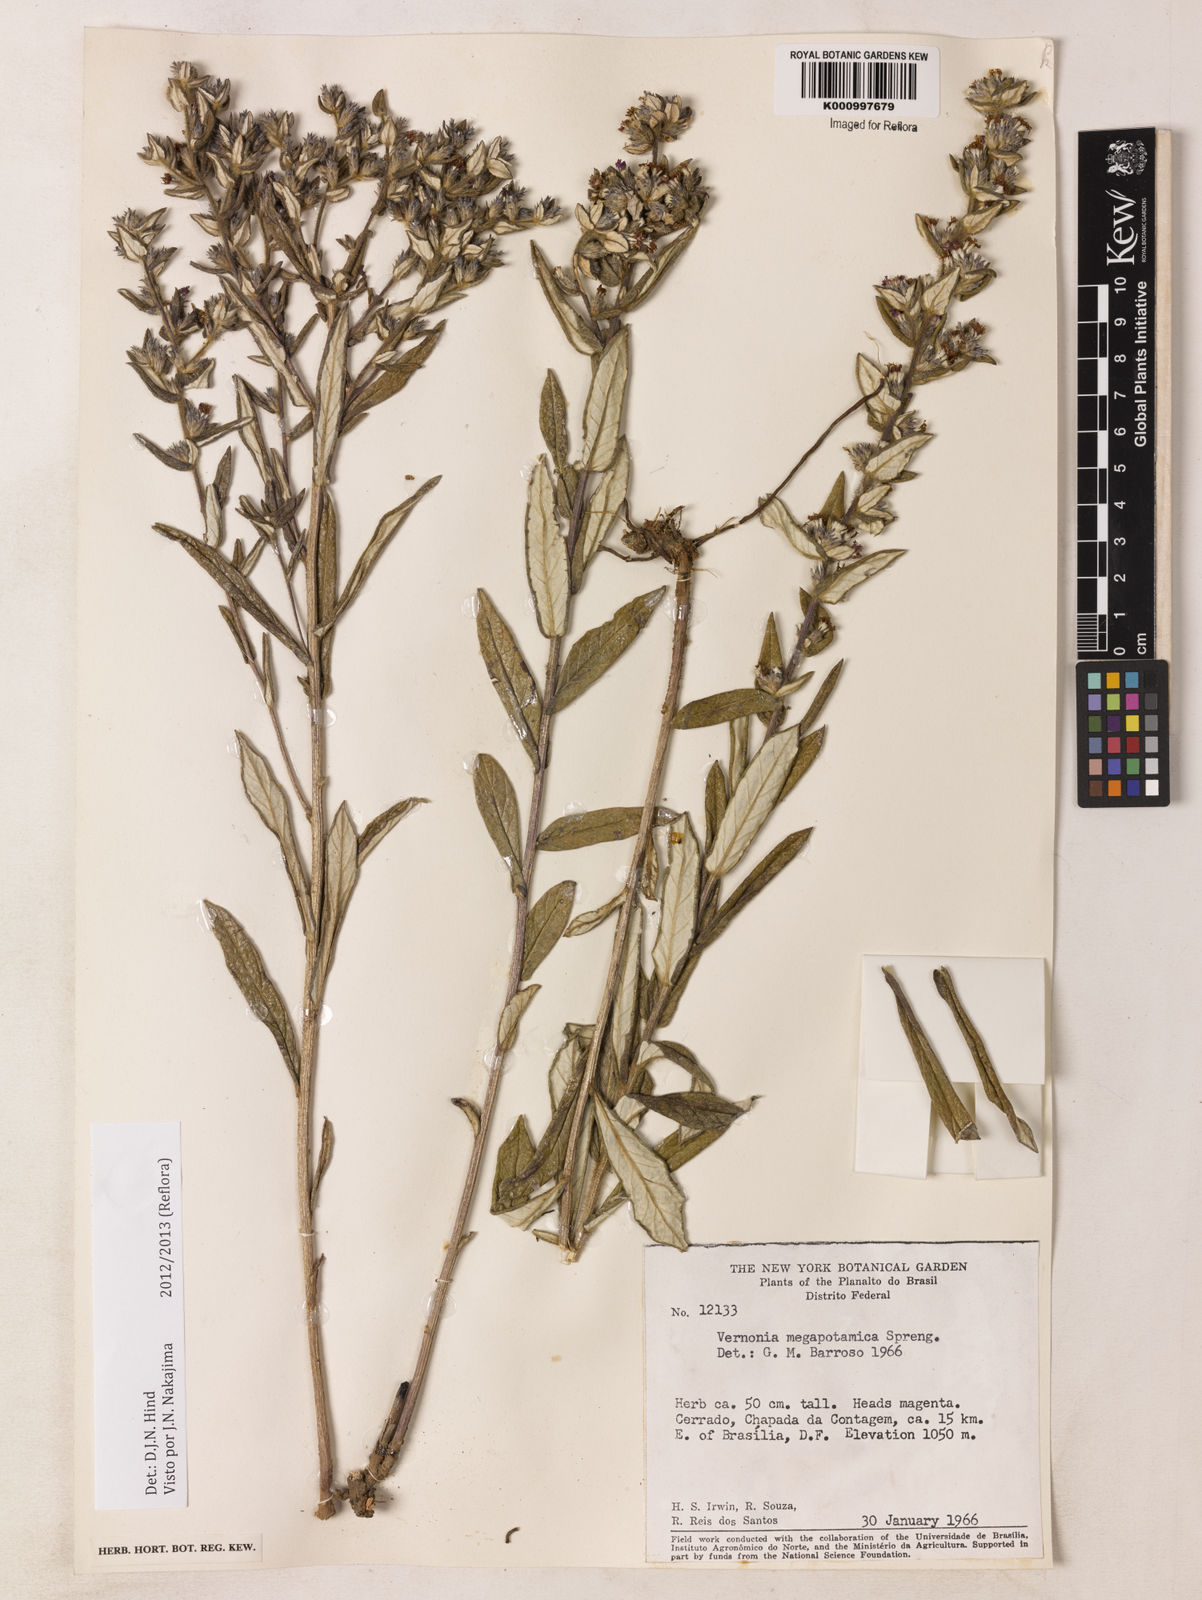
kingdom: Plantae
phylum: Tracheophyta
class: Magnoliopsida
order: Asterales
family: Asteraceae
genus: Stenocephalum
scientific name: Stenocephalum megapotamicum
